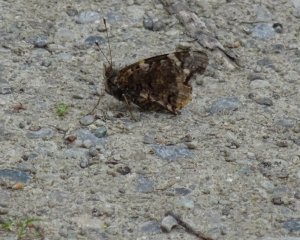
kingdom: Animalia
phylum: Arthropoda
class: Insecta
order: Lepidoptera
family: Nymphalidae
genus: Vanessa
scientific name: Vanessa atalanta
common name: Red Admiral
